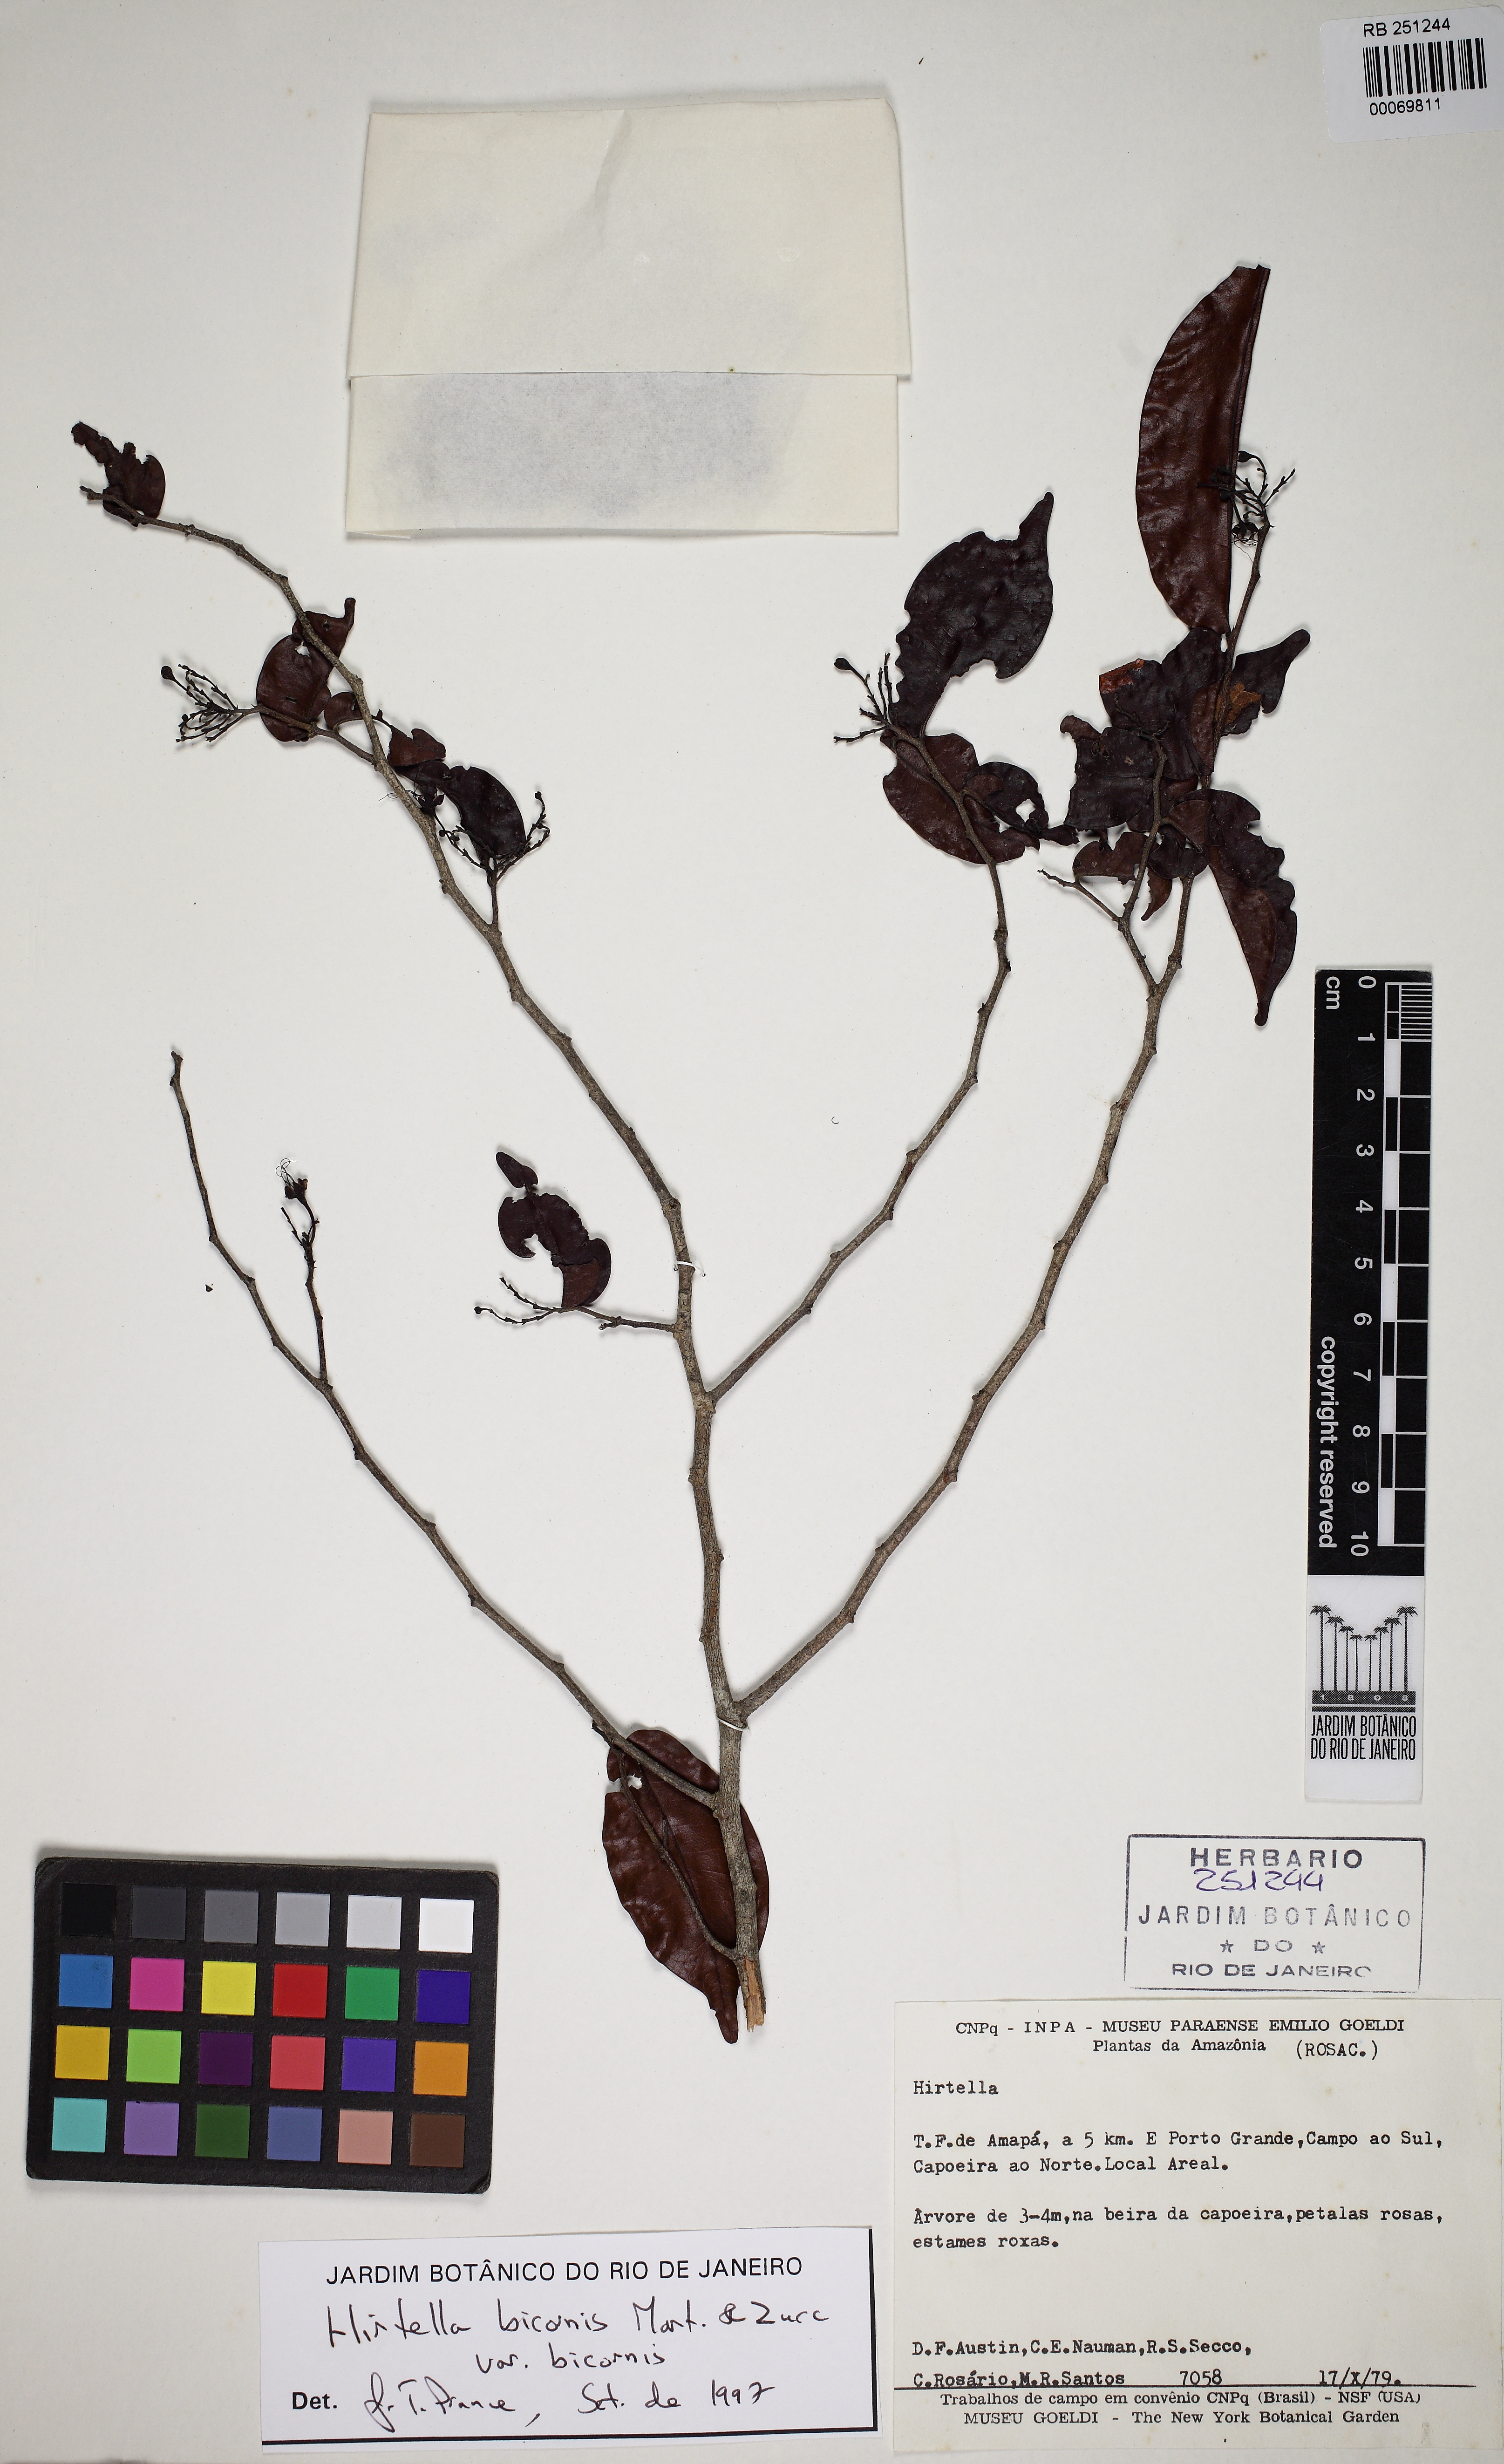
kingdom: Plantae
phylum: Tracheophyta
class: Magnoliopsida
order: Malpighiales
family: Chrysobalanaceae
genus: Hirtella
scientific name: Hirtella bicornis
